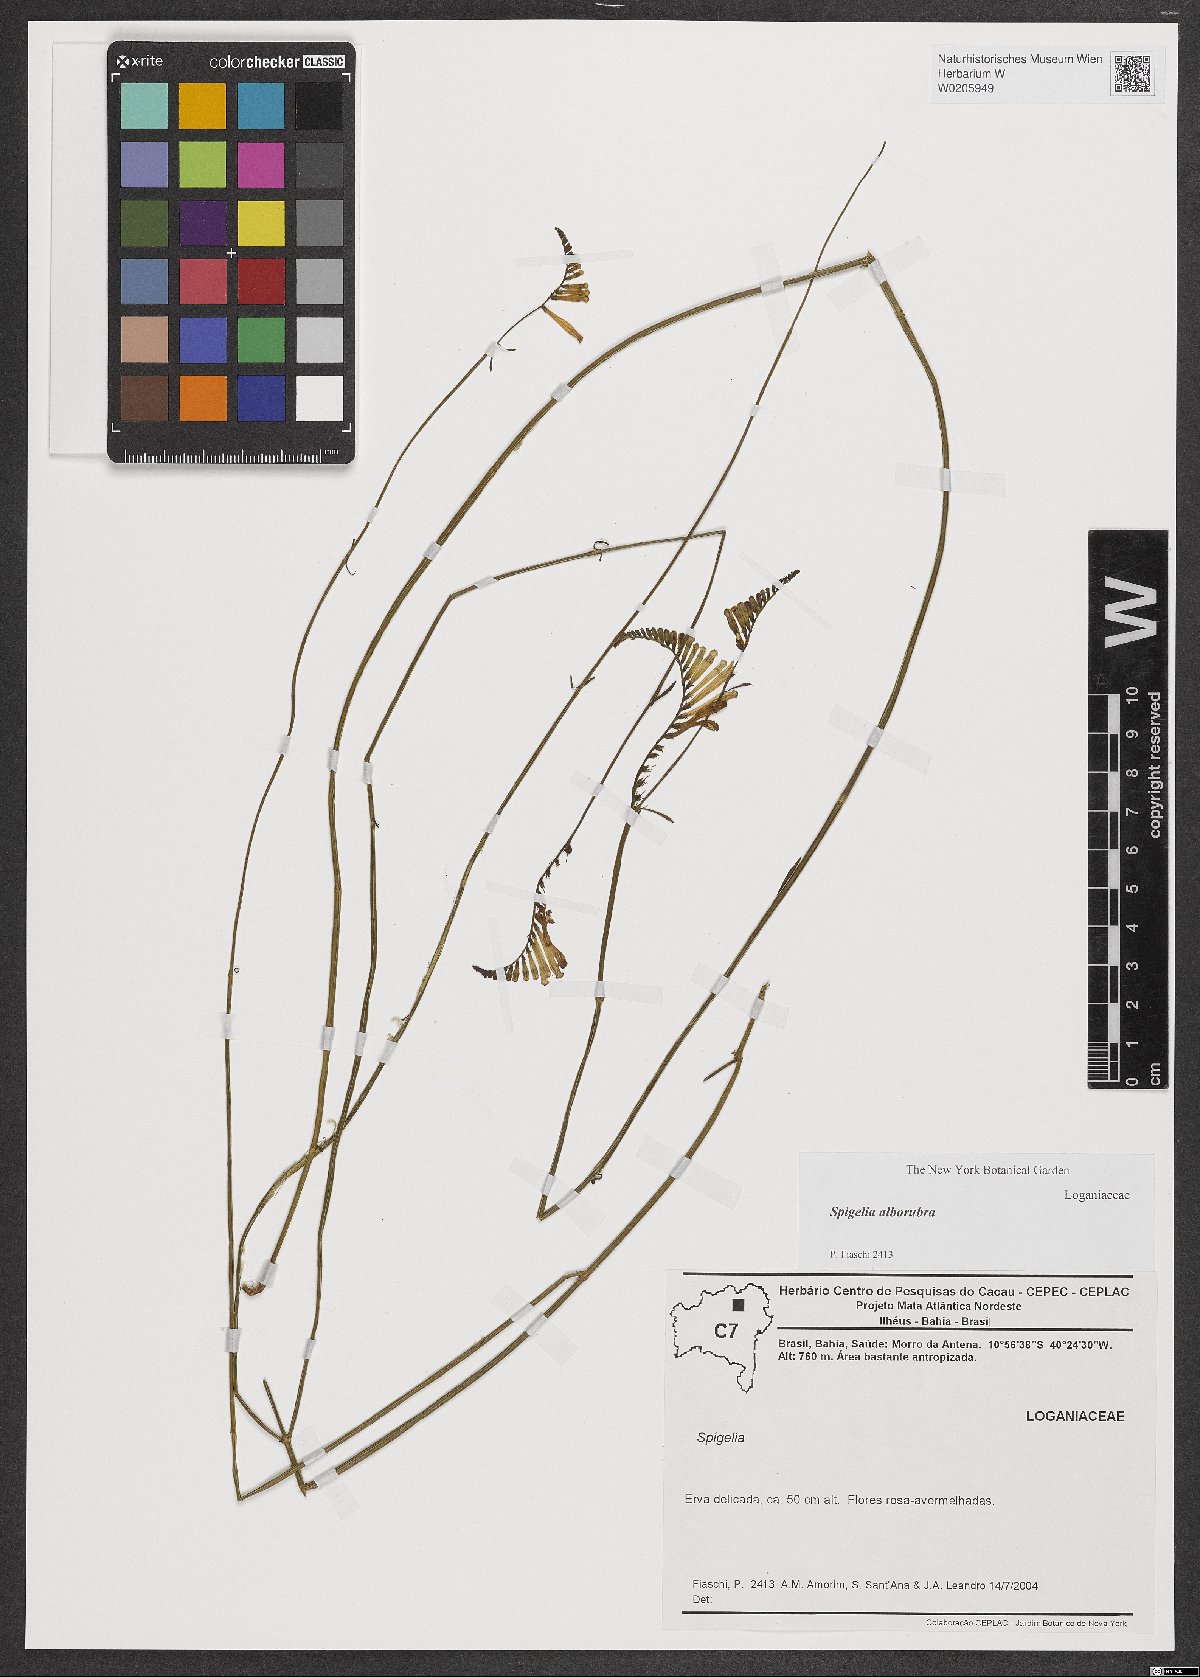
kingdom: Plantae
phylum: Tracheophyta
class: Magnoliopsida
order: Gentianales
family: Loganiaceae
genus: Spigelia
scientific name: Spigelia alborubra
